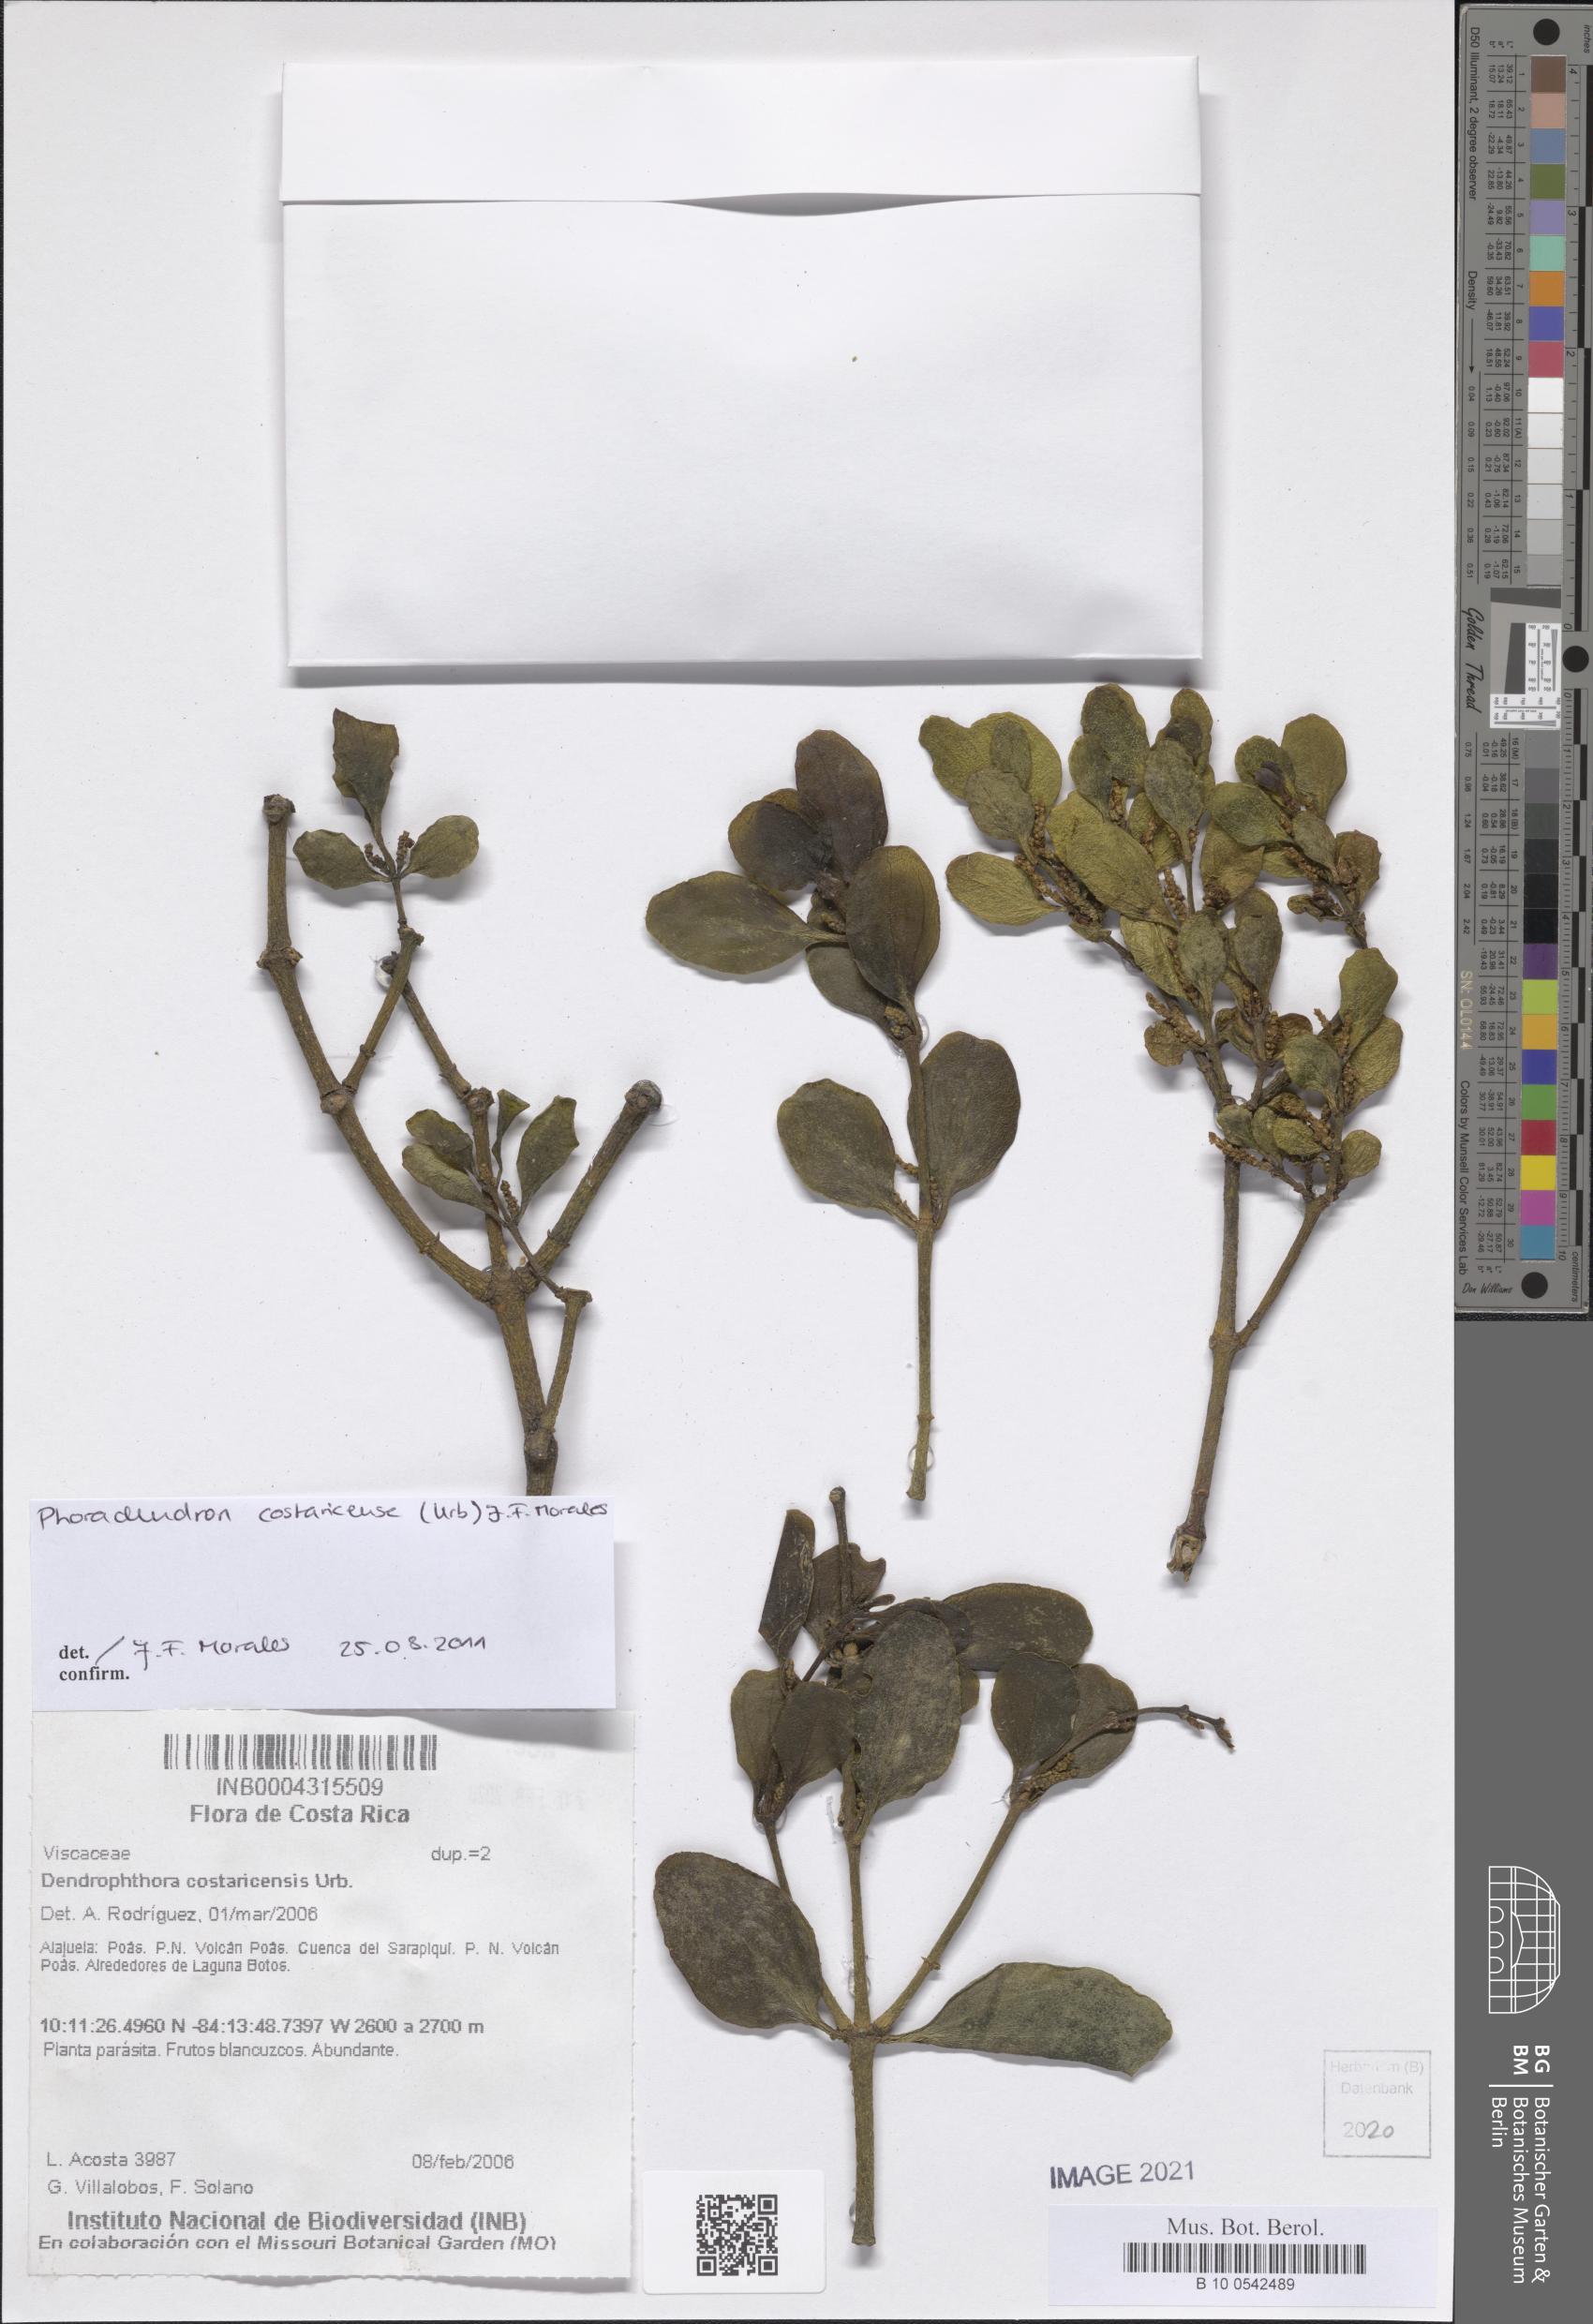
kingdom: Plantae
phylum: Tracheophyta
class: Magnoliopsida
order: Santalales
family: Viscaceae
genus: Phoradendron
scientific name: Phoradendron costaricense
